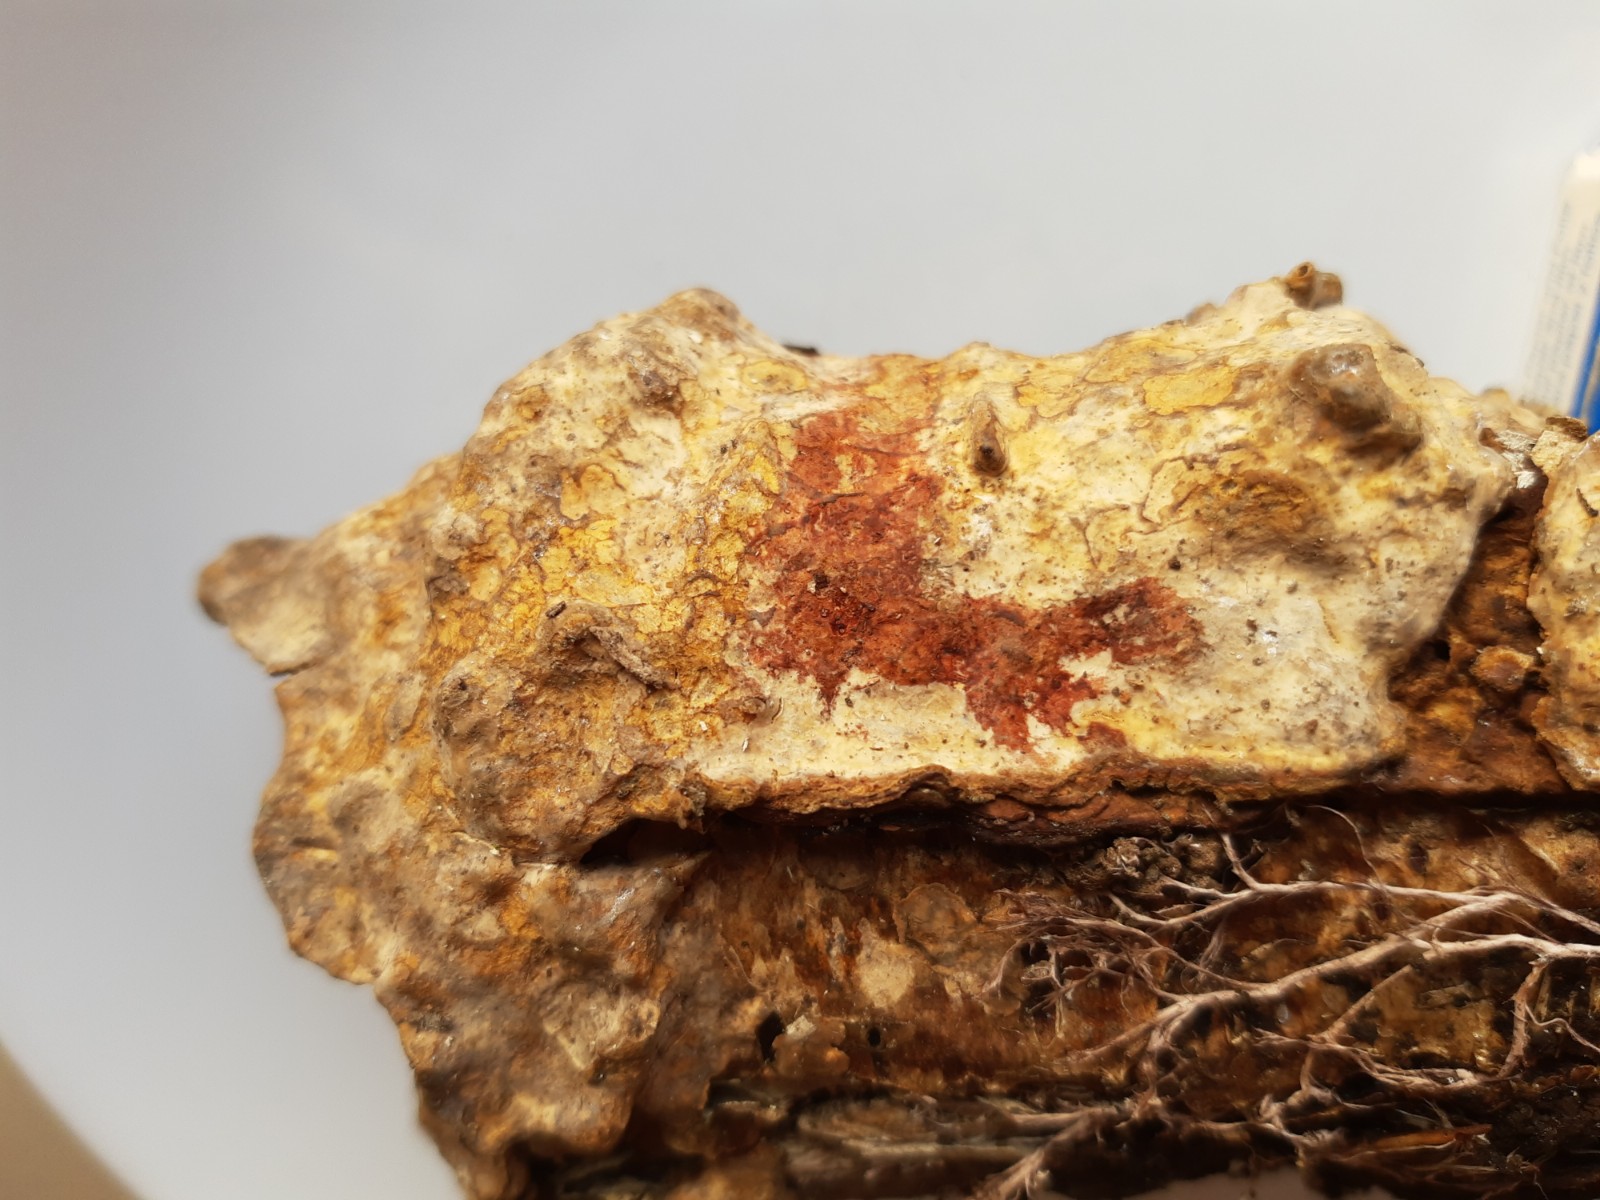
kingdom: Fungi
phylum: Basidiomycota
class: Agaricomycetes
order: Russulales
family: Stereaceae
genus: Stereum
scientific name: Stereum rugosum
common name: rynket lædersvamp
